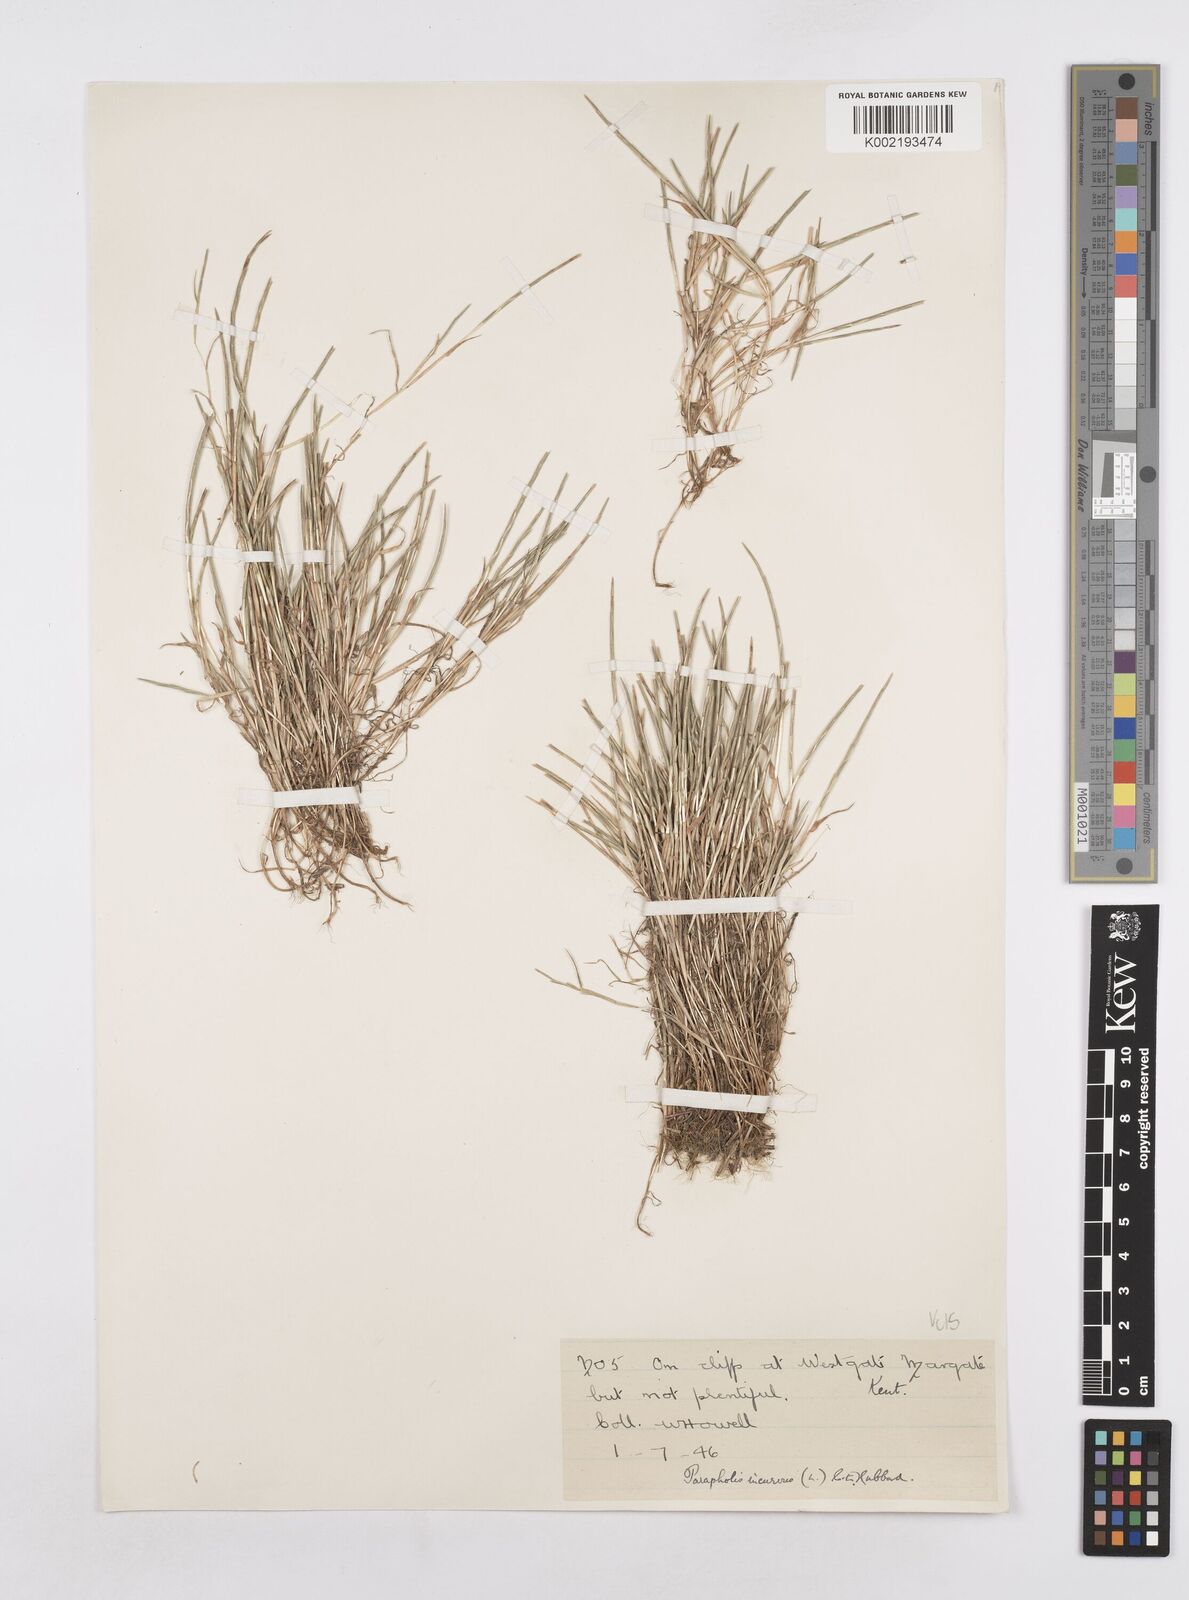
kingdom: Plantae
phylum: Tracheophyta
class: Liliopsida
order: Poales
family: Poaceae
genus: Parapholis
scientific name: Parapholis incurva
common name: Curved sicklegrass
